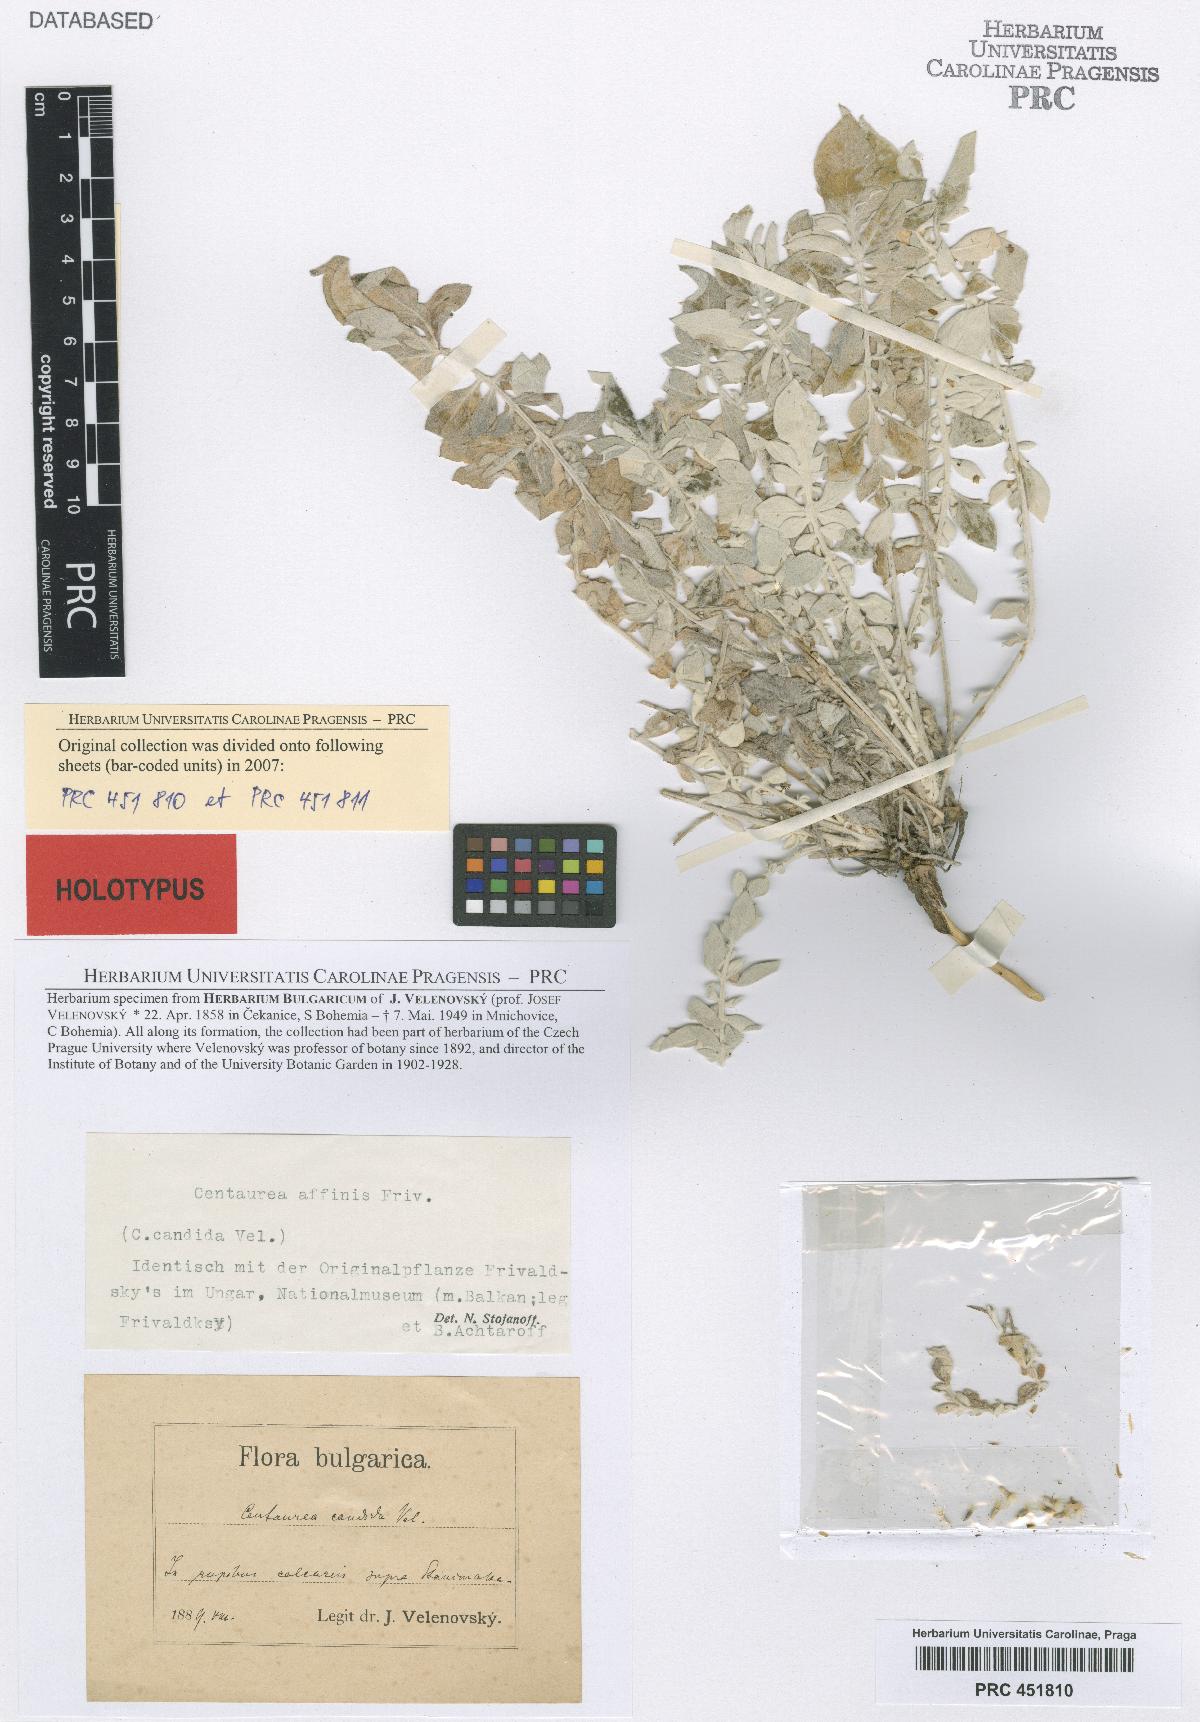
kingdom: Plantae
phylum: Tracheophyta
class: Magnoliopsida
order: Asterales
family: Asteraceae
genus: Centaurea
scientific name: Centaurea affinis
